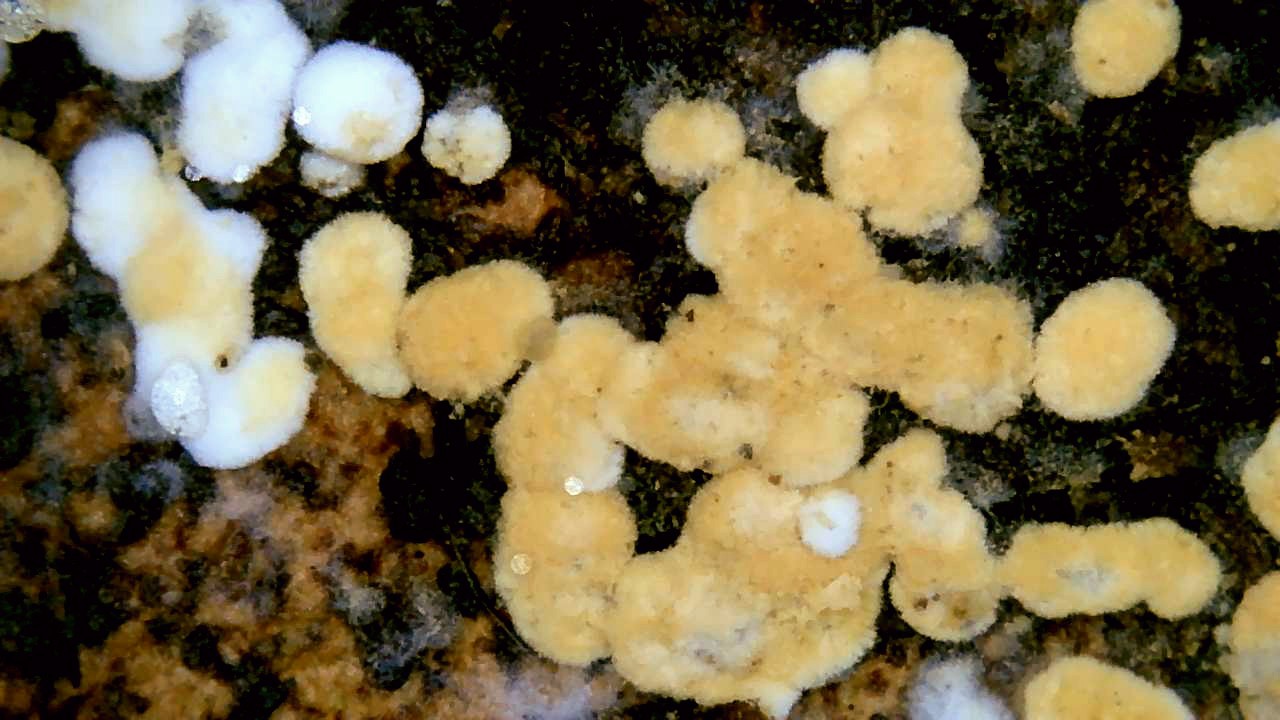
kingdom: Fungi
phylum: Basidiomycota
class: Agaricomycetes
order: Cantharellales
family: Botryobasidiaceae
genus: Botryobasidium
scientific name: Botryobasidium aureum
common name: gylden spindhinde
